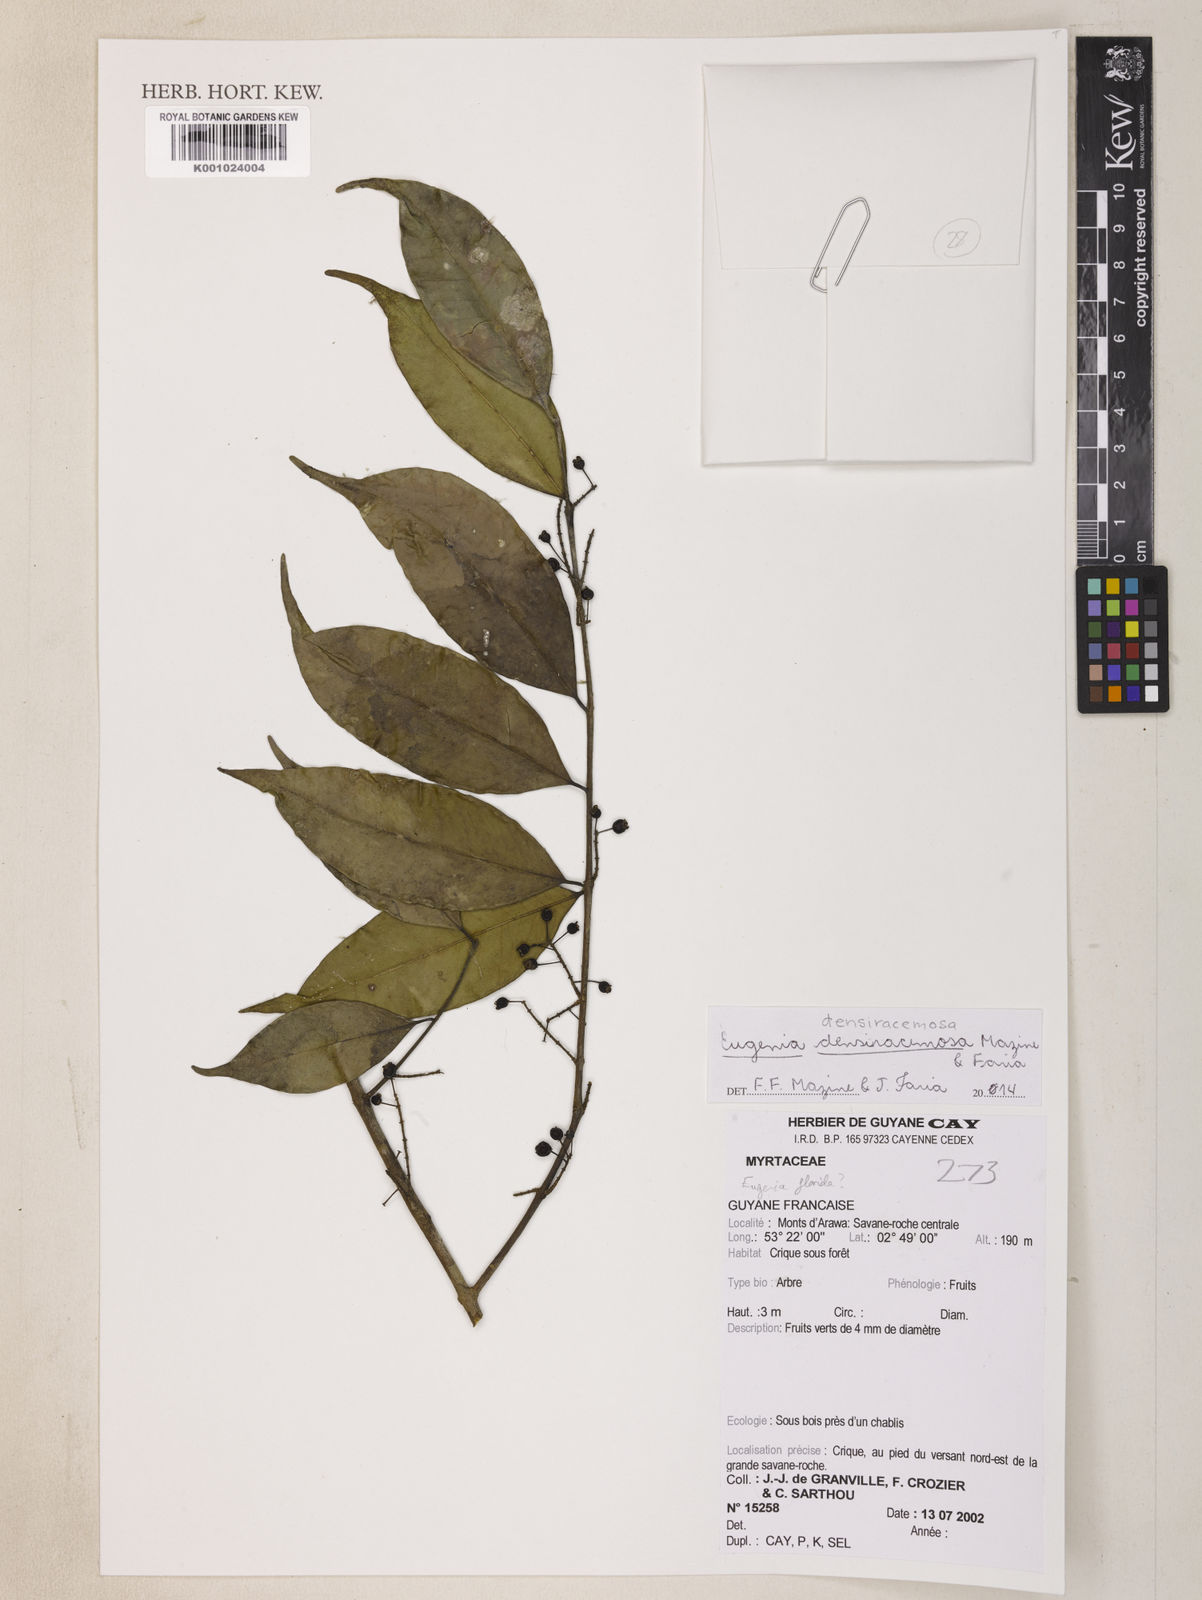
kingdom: Plantae
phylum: Tracheophyta
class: Magnoliopsida
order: Myrtales
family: Myrtaceae
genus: Eugenia
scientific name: Eugenia densiracemosa
